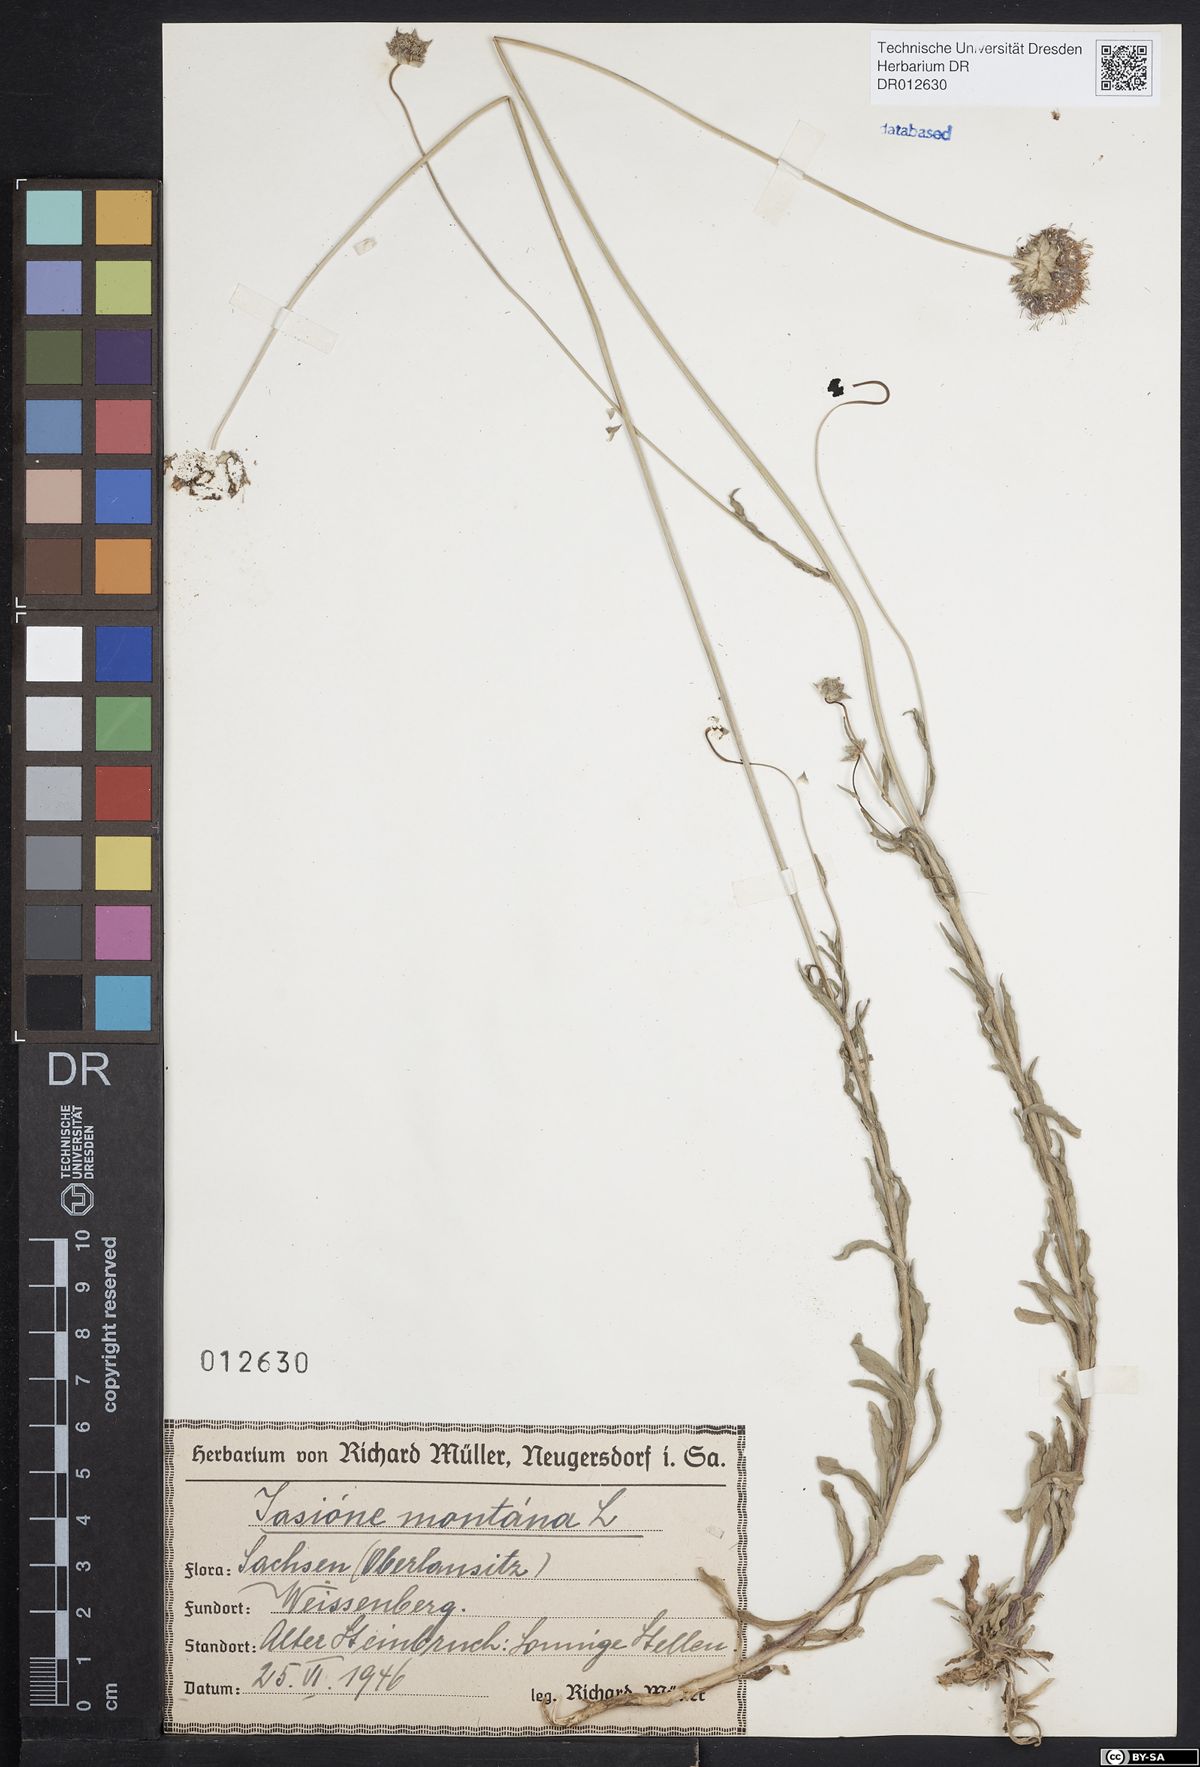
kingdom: Plantae
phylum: Tracheophyta
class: Magnoliopsida
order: Asterales
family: Campanulaceae
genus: Jasione
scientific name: Jasione montana
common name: Sheep's-bit
